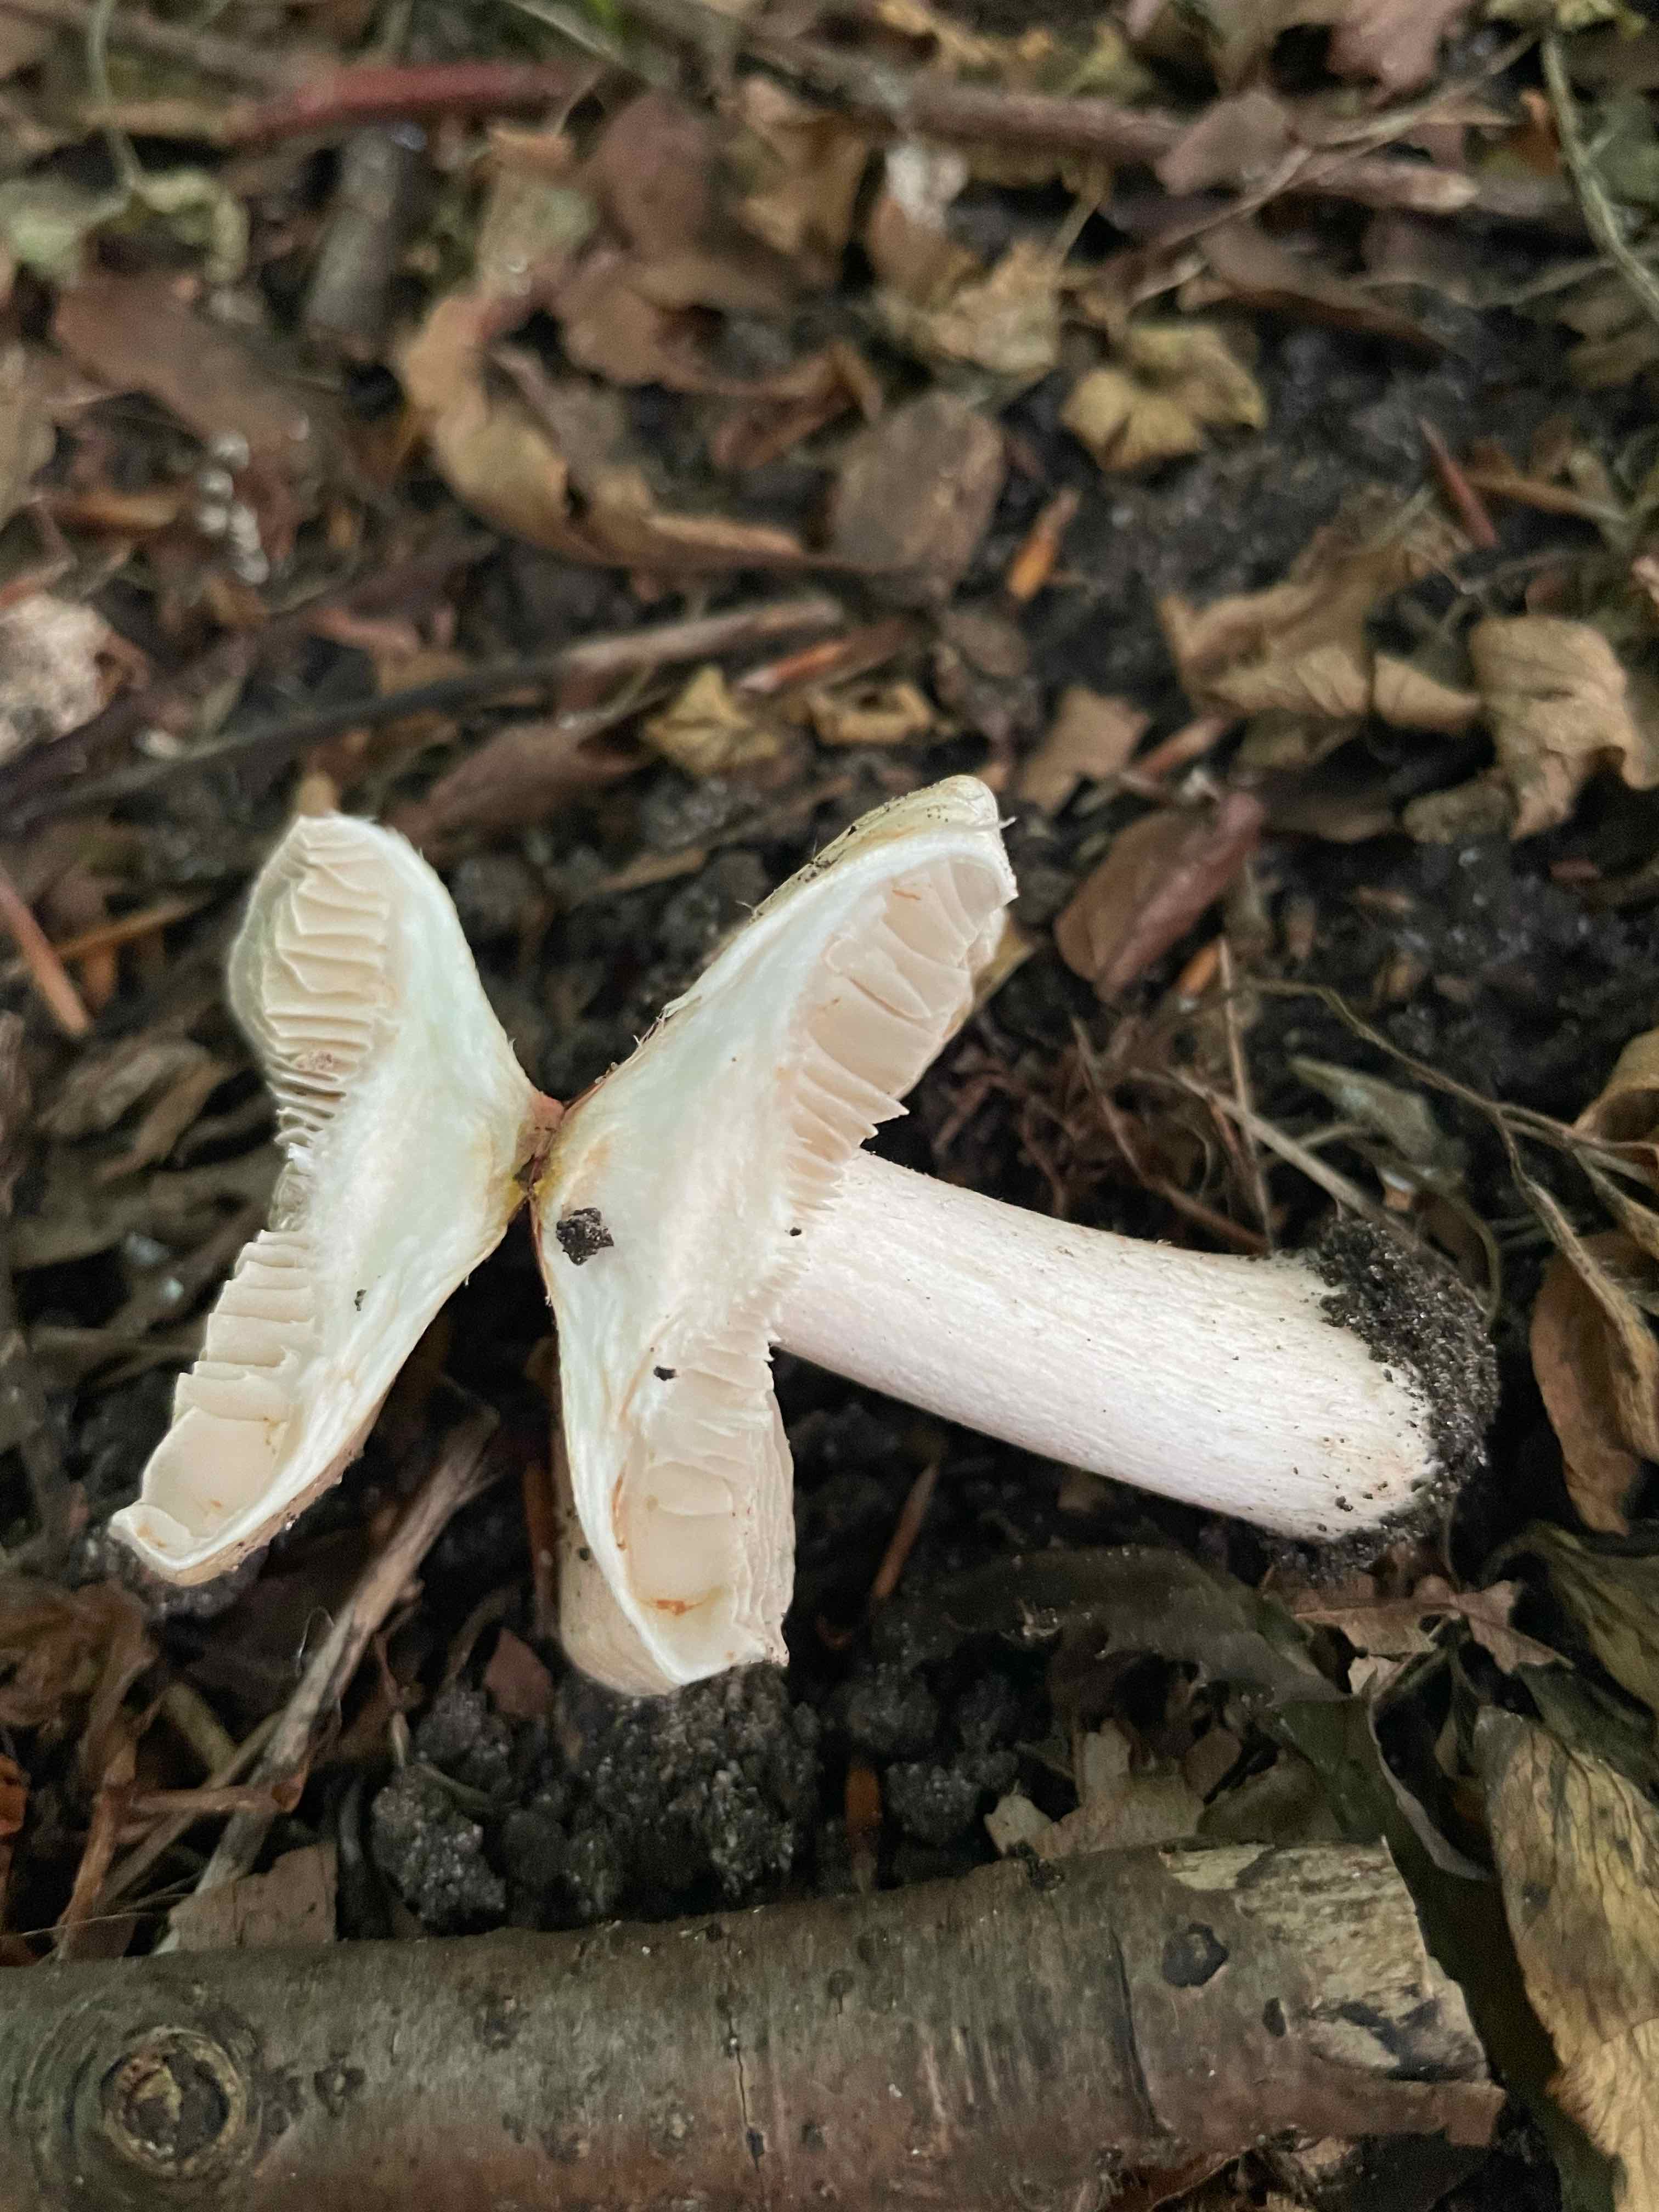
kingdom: Fungi
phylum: Basidiomycota
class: Agaricomycetes
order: Agaricales
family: Inocybaceae
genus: Inosperma
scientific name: Inosperma erubescens
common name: giftig trævlhat
